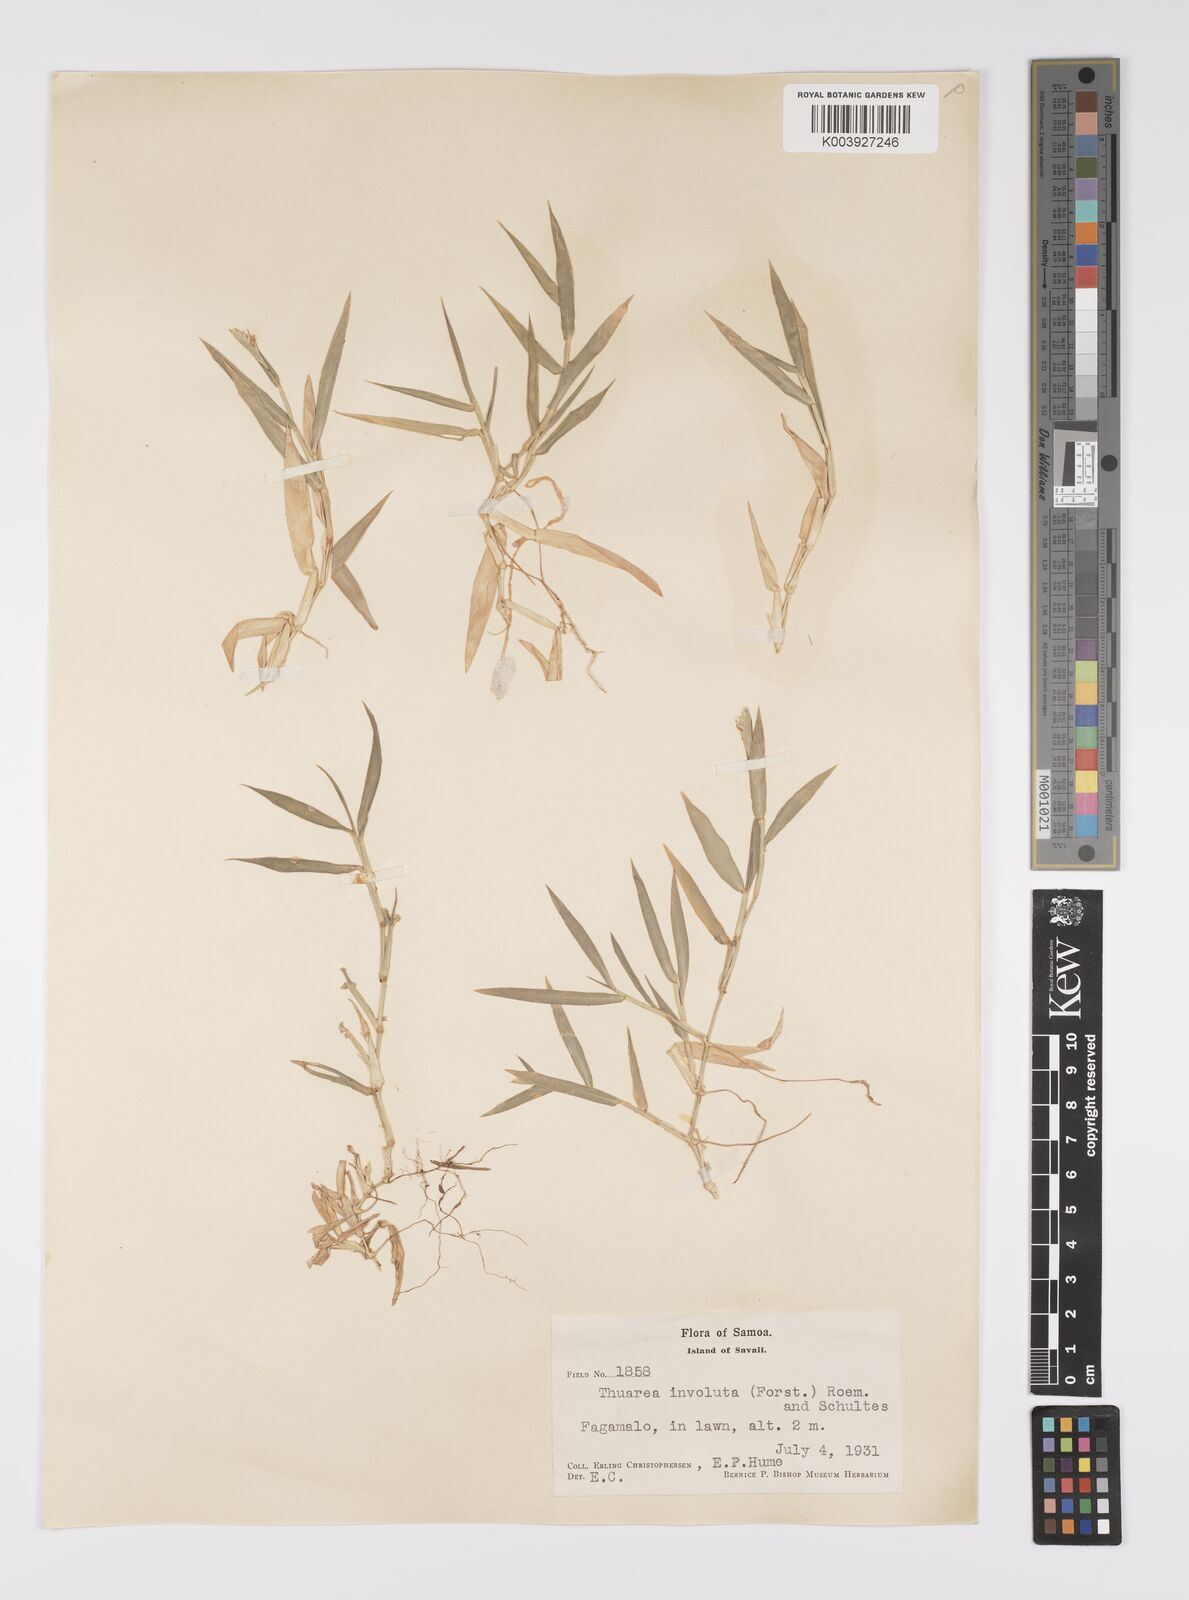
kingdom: Plantae
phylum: Tracheophyta
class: Liliopsida
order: Poales
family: Poaceae
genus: Thuarea
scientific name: Thuarea involuta
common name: Tropical beach grass
